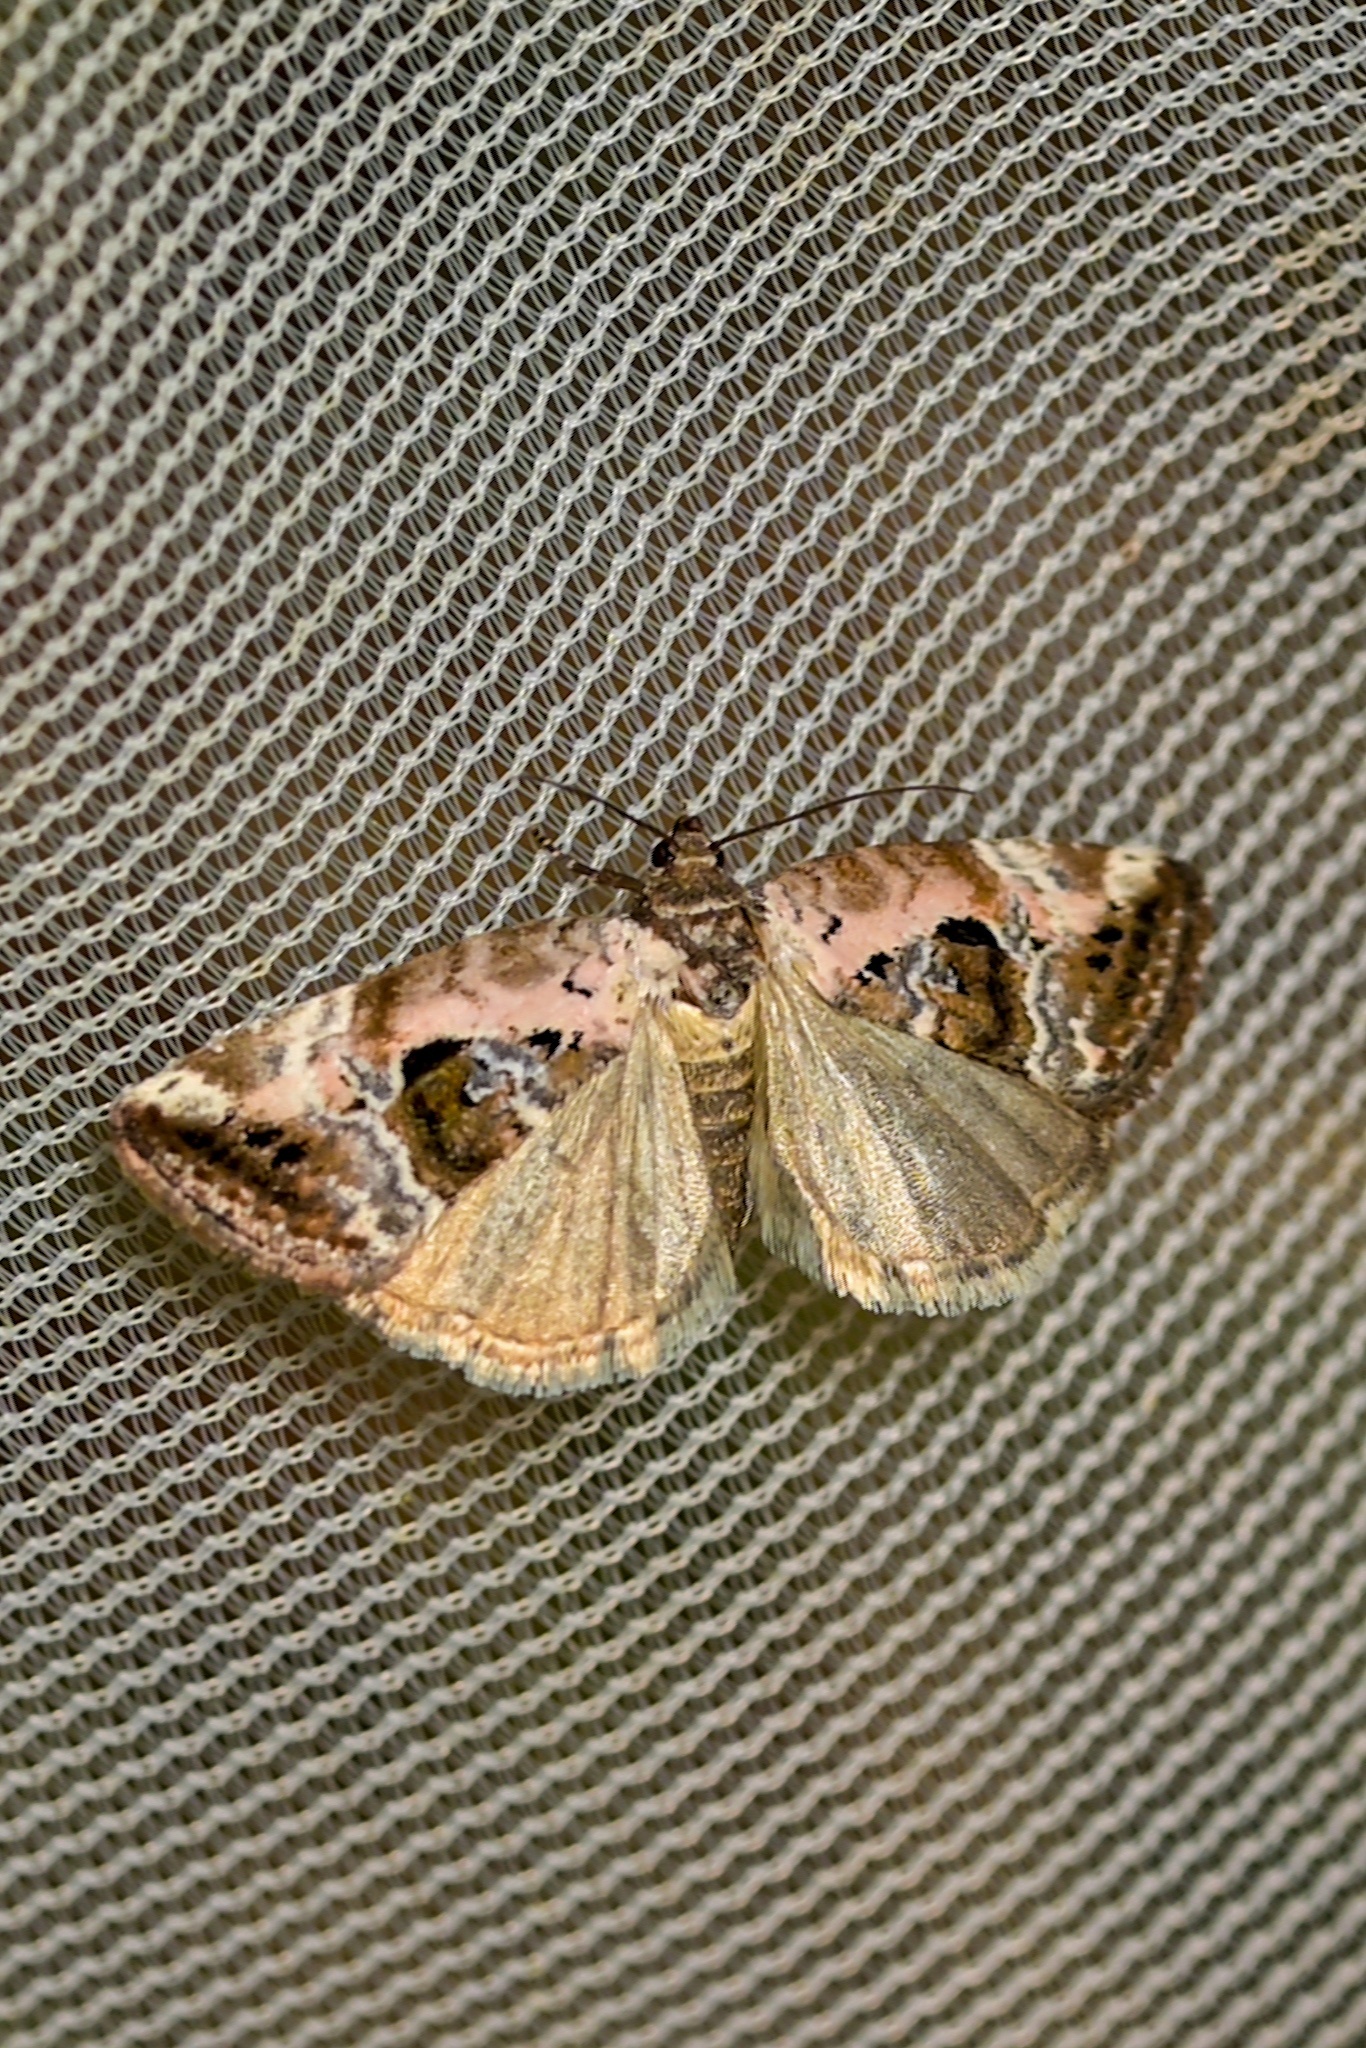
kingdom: Animalia
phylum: Arthropoda
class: Insecta
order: Lepidoptera
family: Noctuidae
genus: Elaphria
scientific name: Elaphria venustula
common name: Rosy marbled
